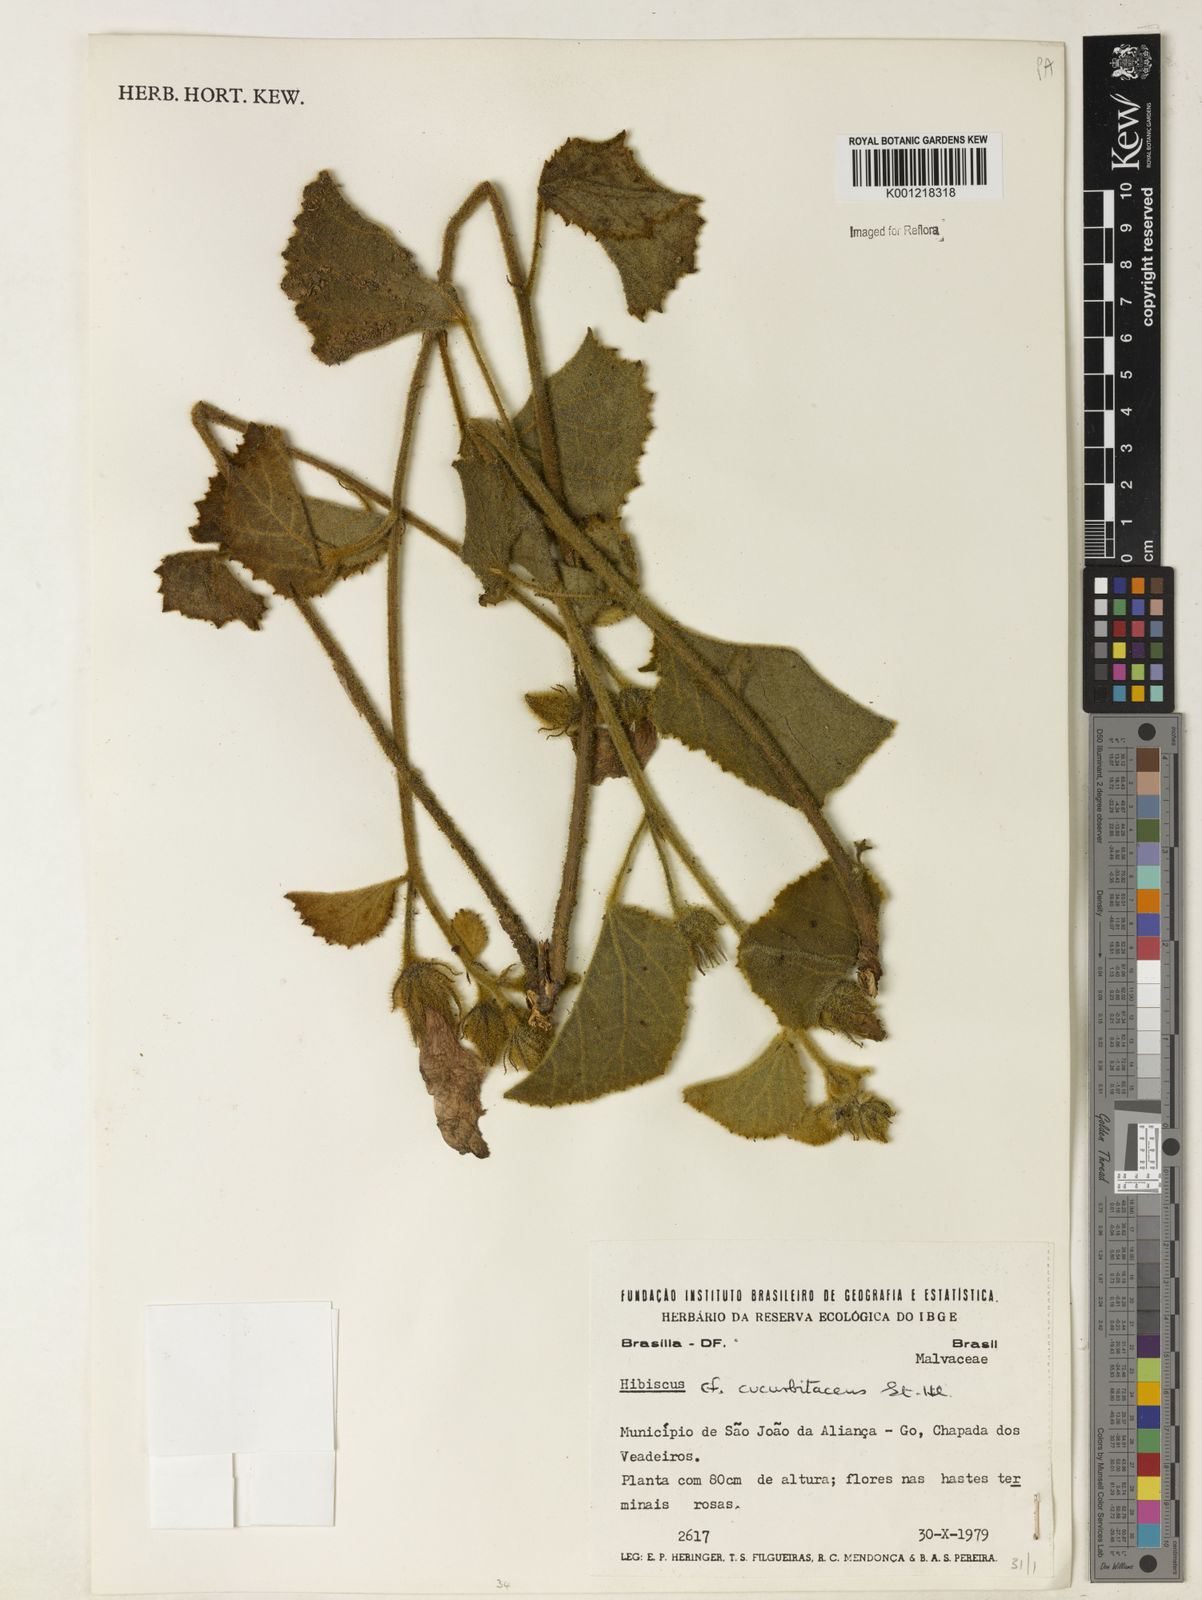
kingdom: Plantae
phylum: Tracheophyta
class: Magnoliopsida
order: Malvales
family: Malvaceae
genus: Hibiscus
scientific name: Hibiscus cucurbitaceus
